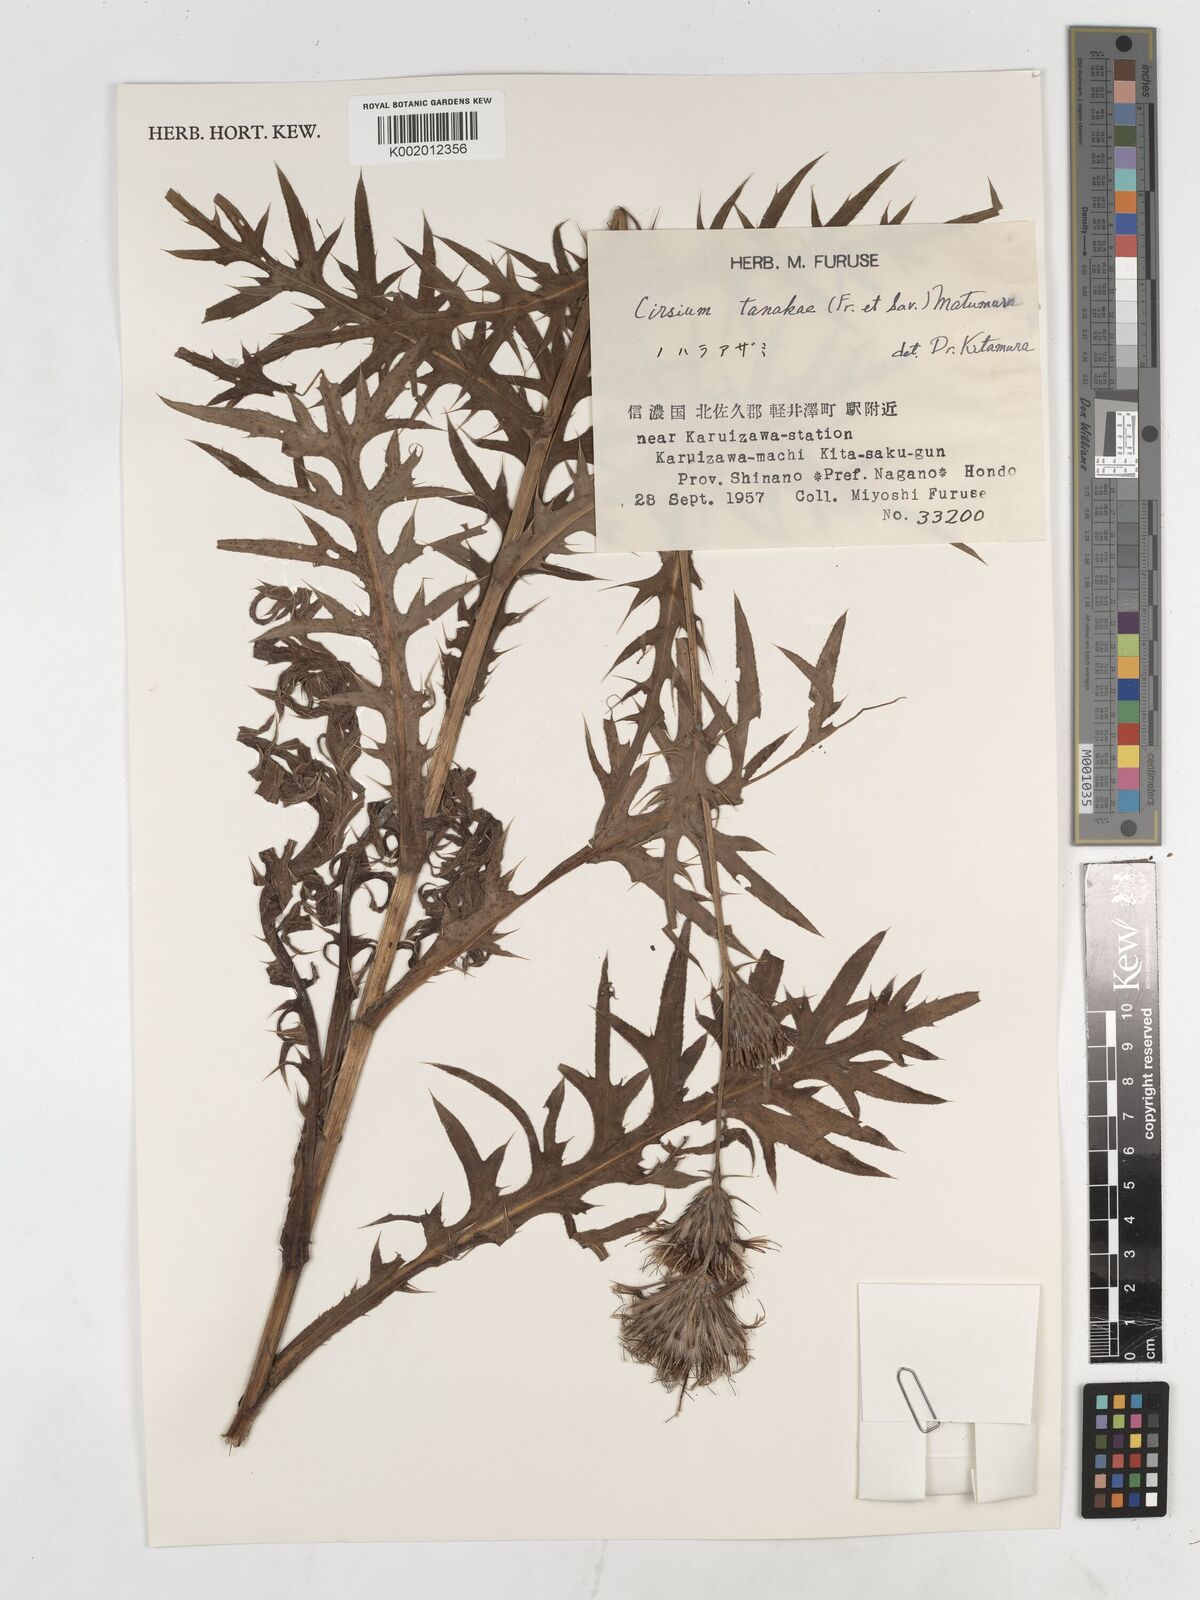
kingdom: Plantae
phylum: Tracheophyta
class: Magnoliopsida
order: Asterales
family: Asteraceae
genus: Cirsium
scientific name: Cirsium nipponicum
